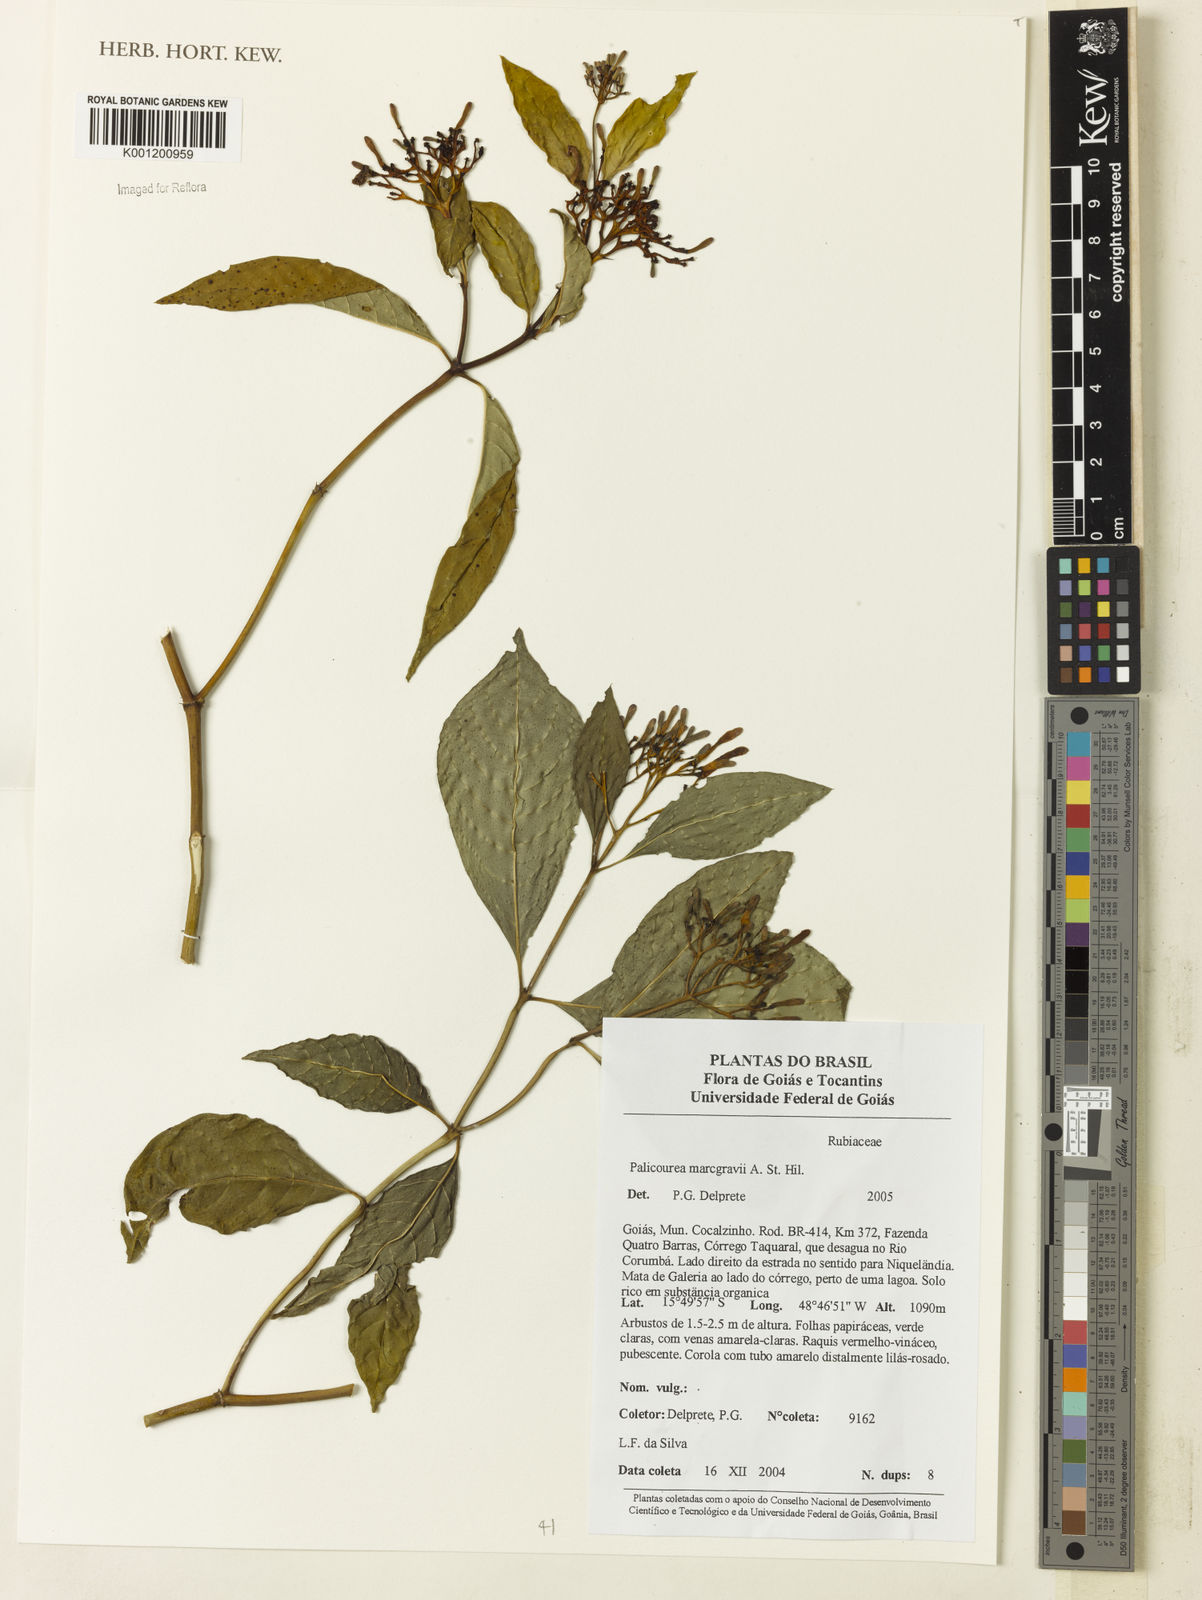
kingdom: Plantae
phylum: Tracheophyta
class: Magnoliopsida
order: Gentianales
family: Rubiaceae
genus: Palicourea
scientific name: Palicourea marcgravii
